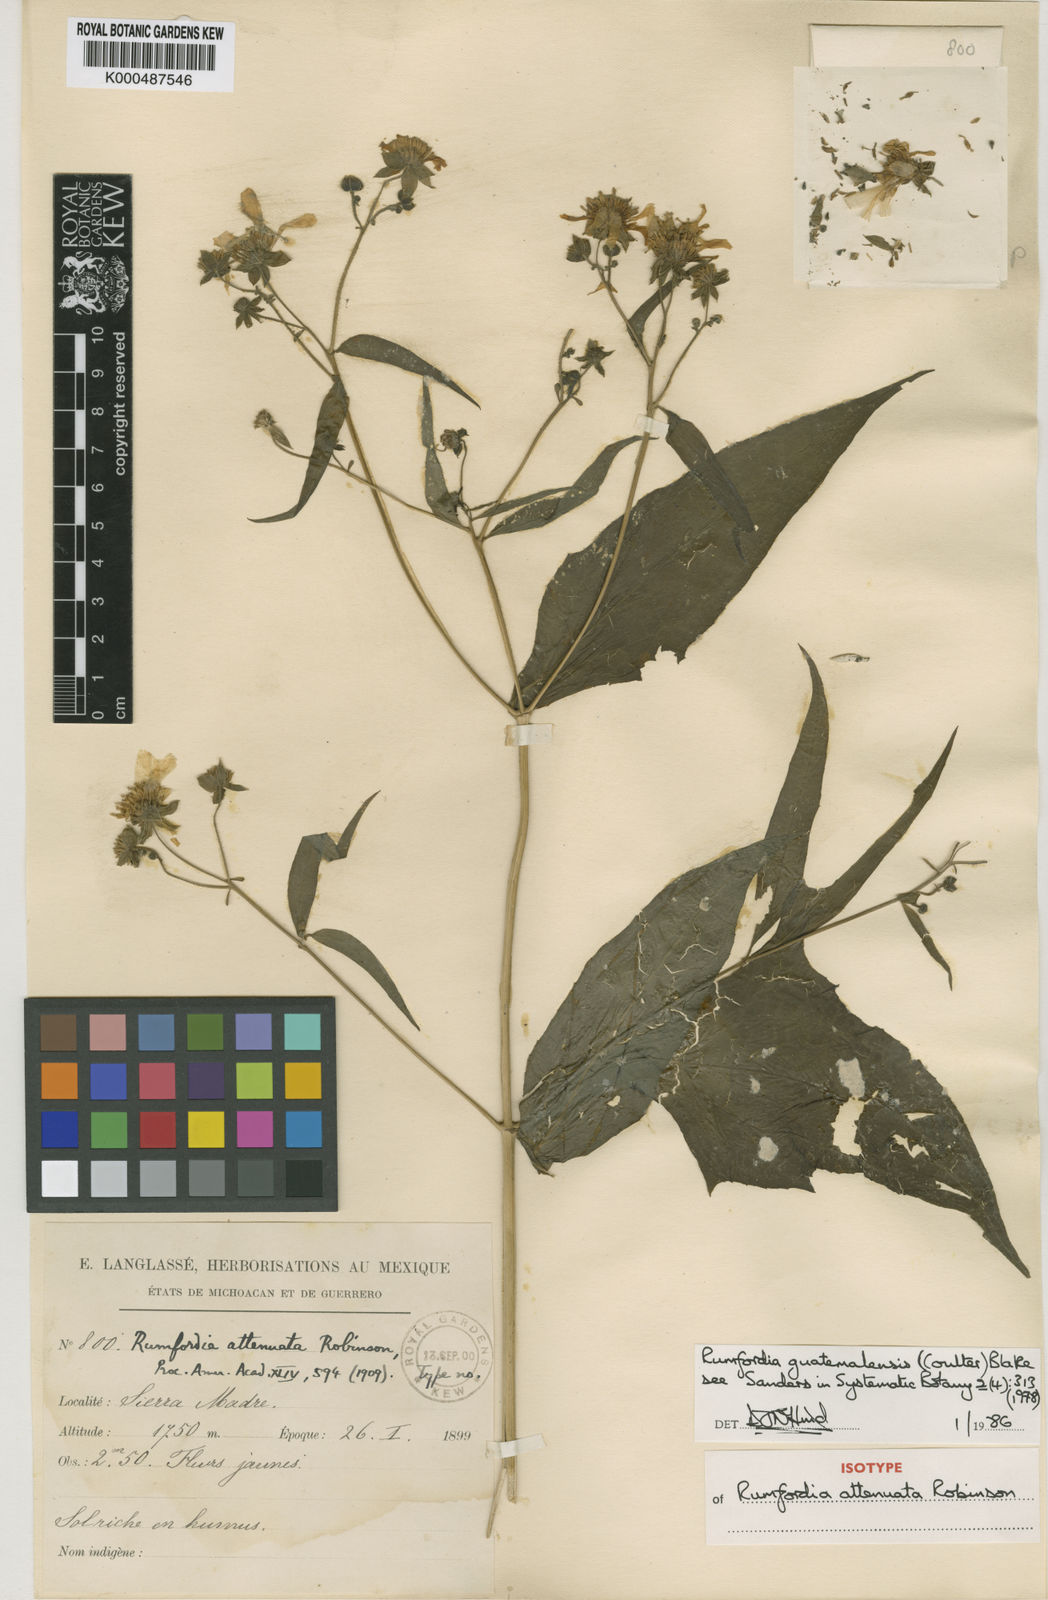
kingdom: Plantae
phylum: Tracheophyta
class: Magnoliopsida
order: Asterales
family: Asteraceae
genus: Rumfordia
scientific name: Rumfordia guatemalensis
